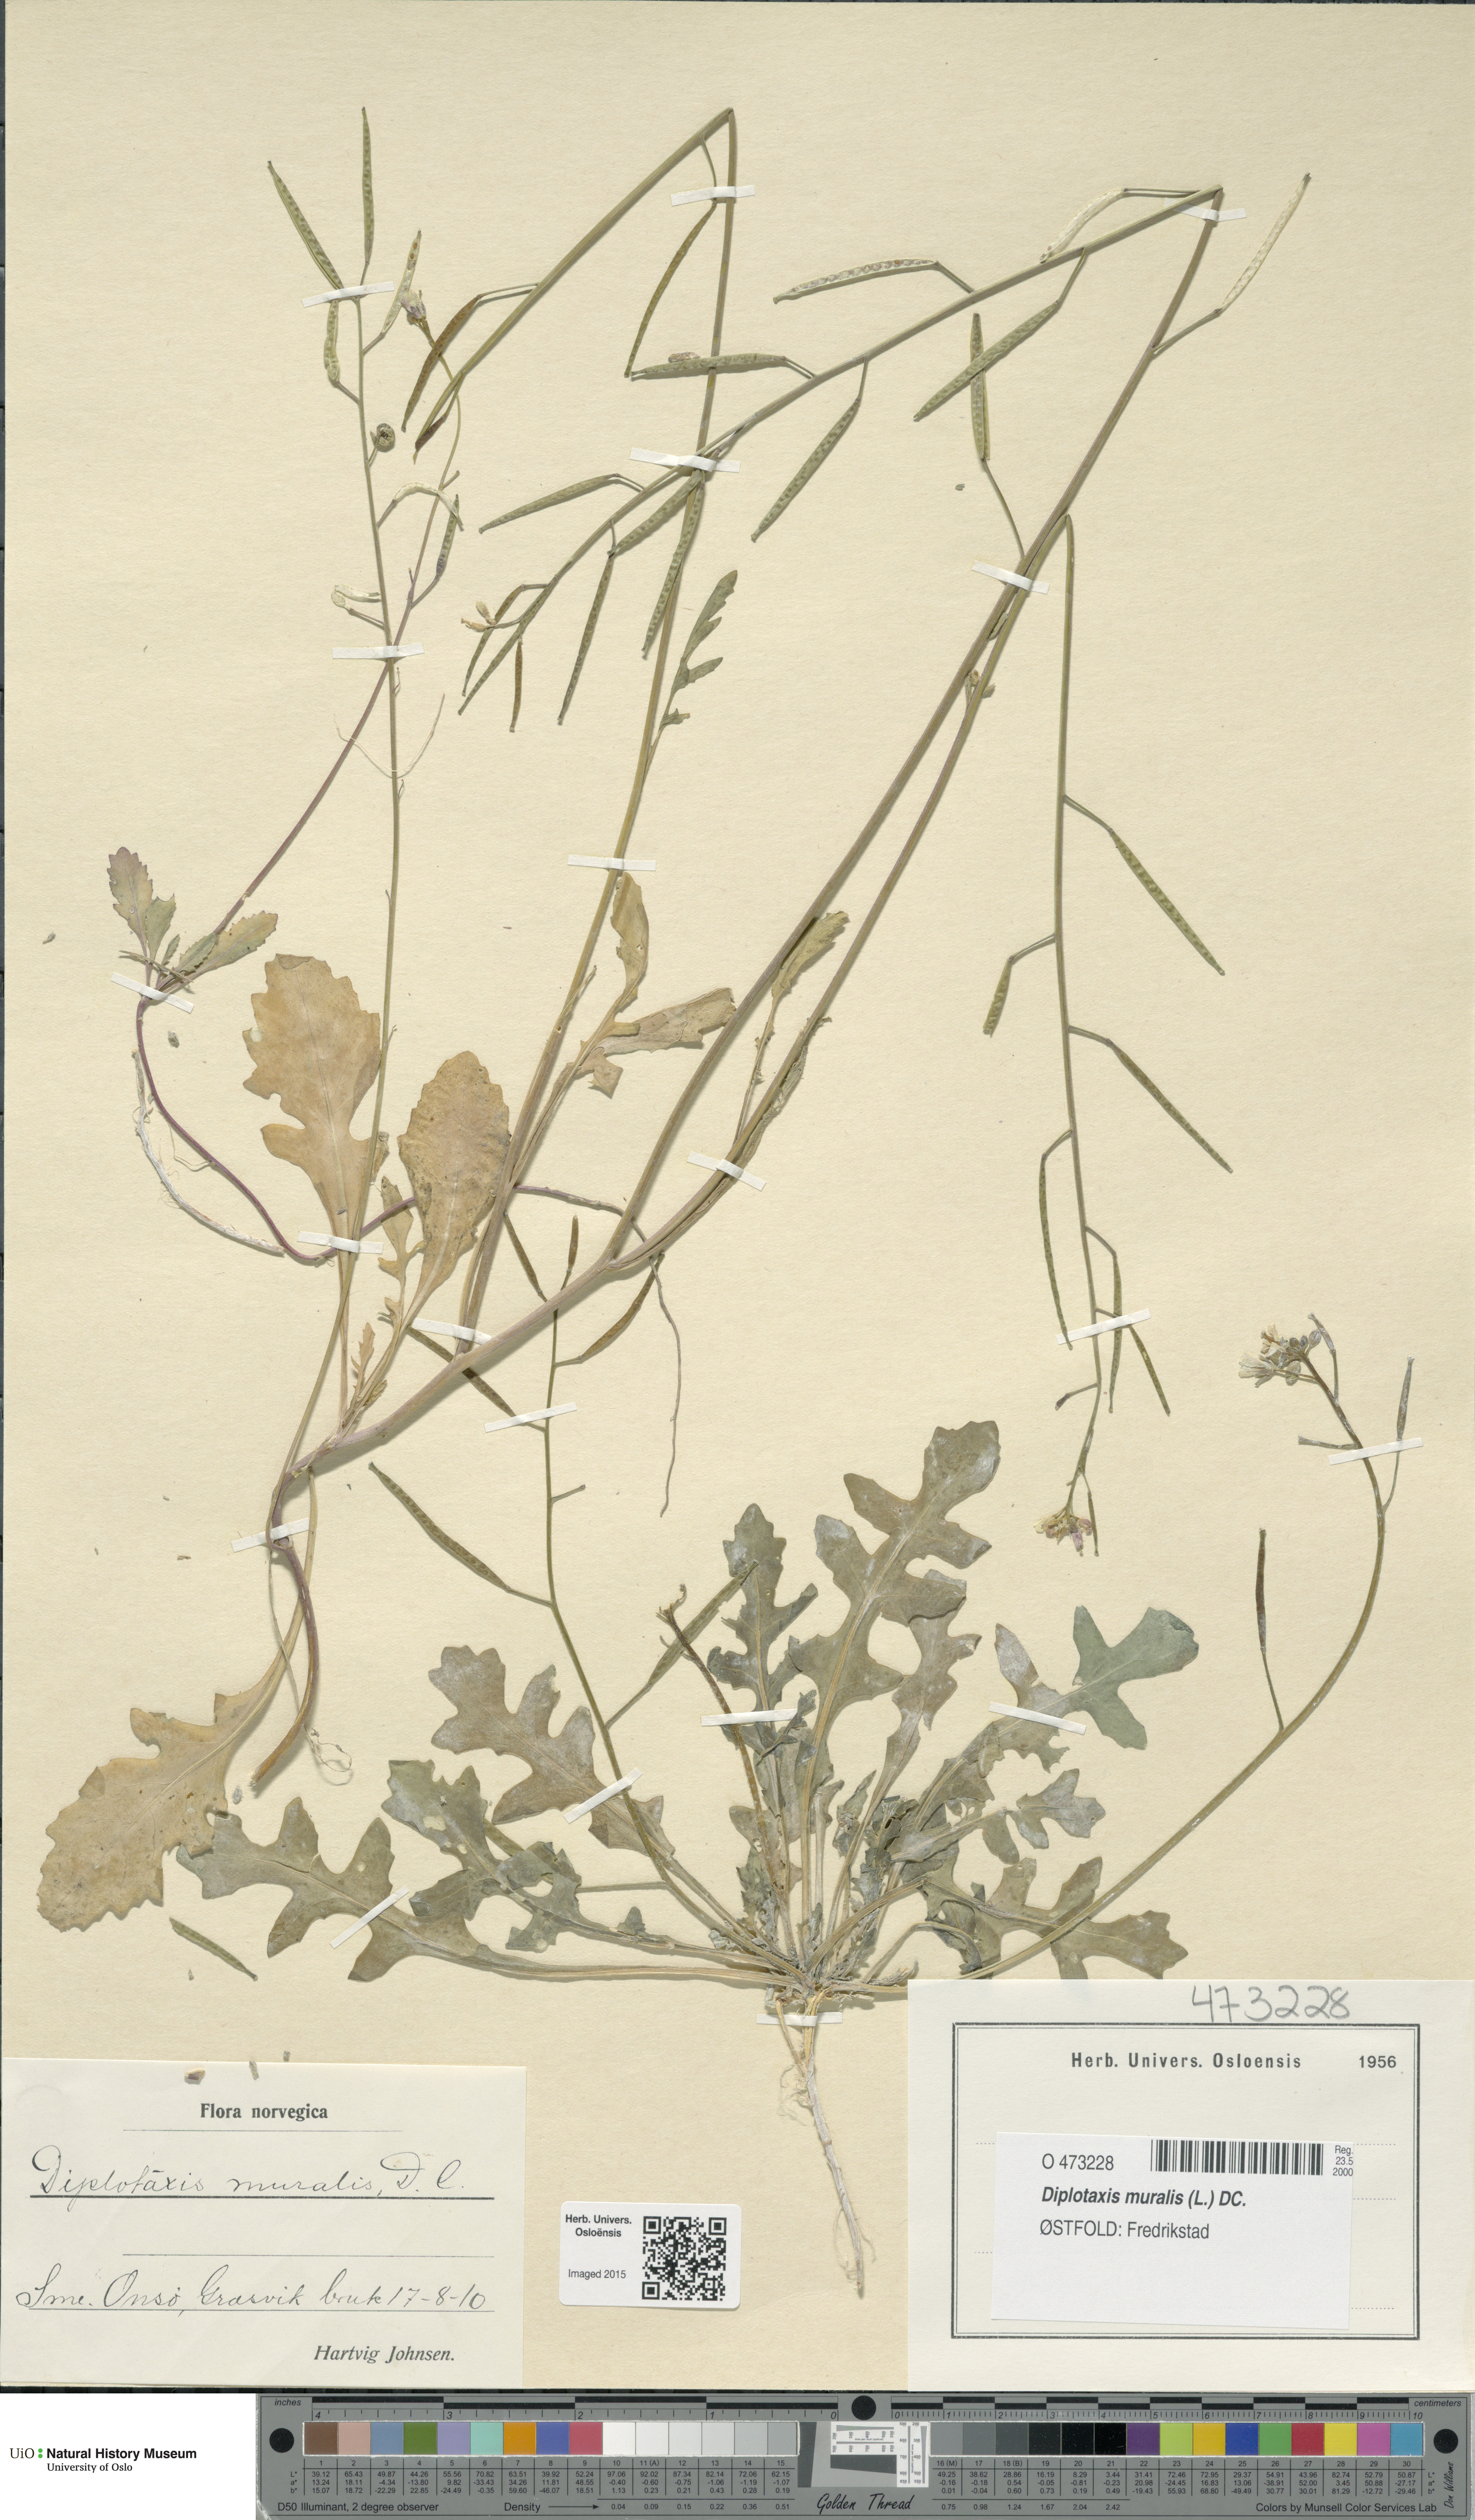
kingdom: Plantae
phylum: Tracheophyta
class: Magnoliopsida
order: Brassicales
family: Brassicaceae
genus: Diplotaxis
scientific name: Diplotaxis muralis
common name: Annual wall-rocket
